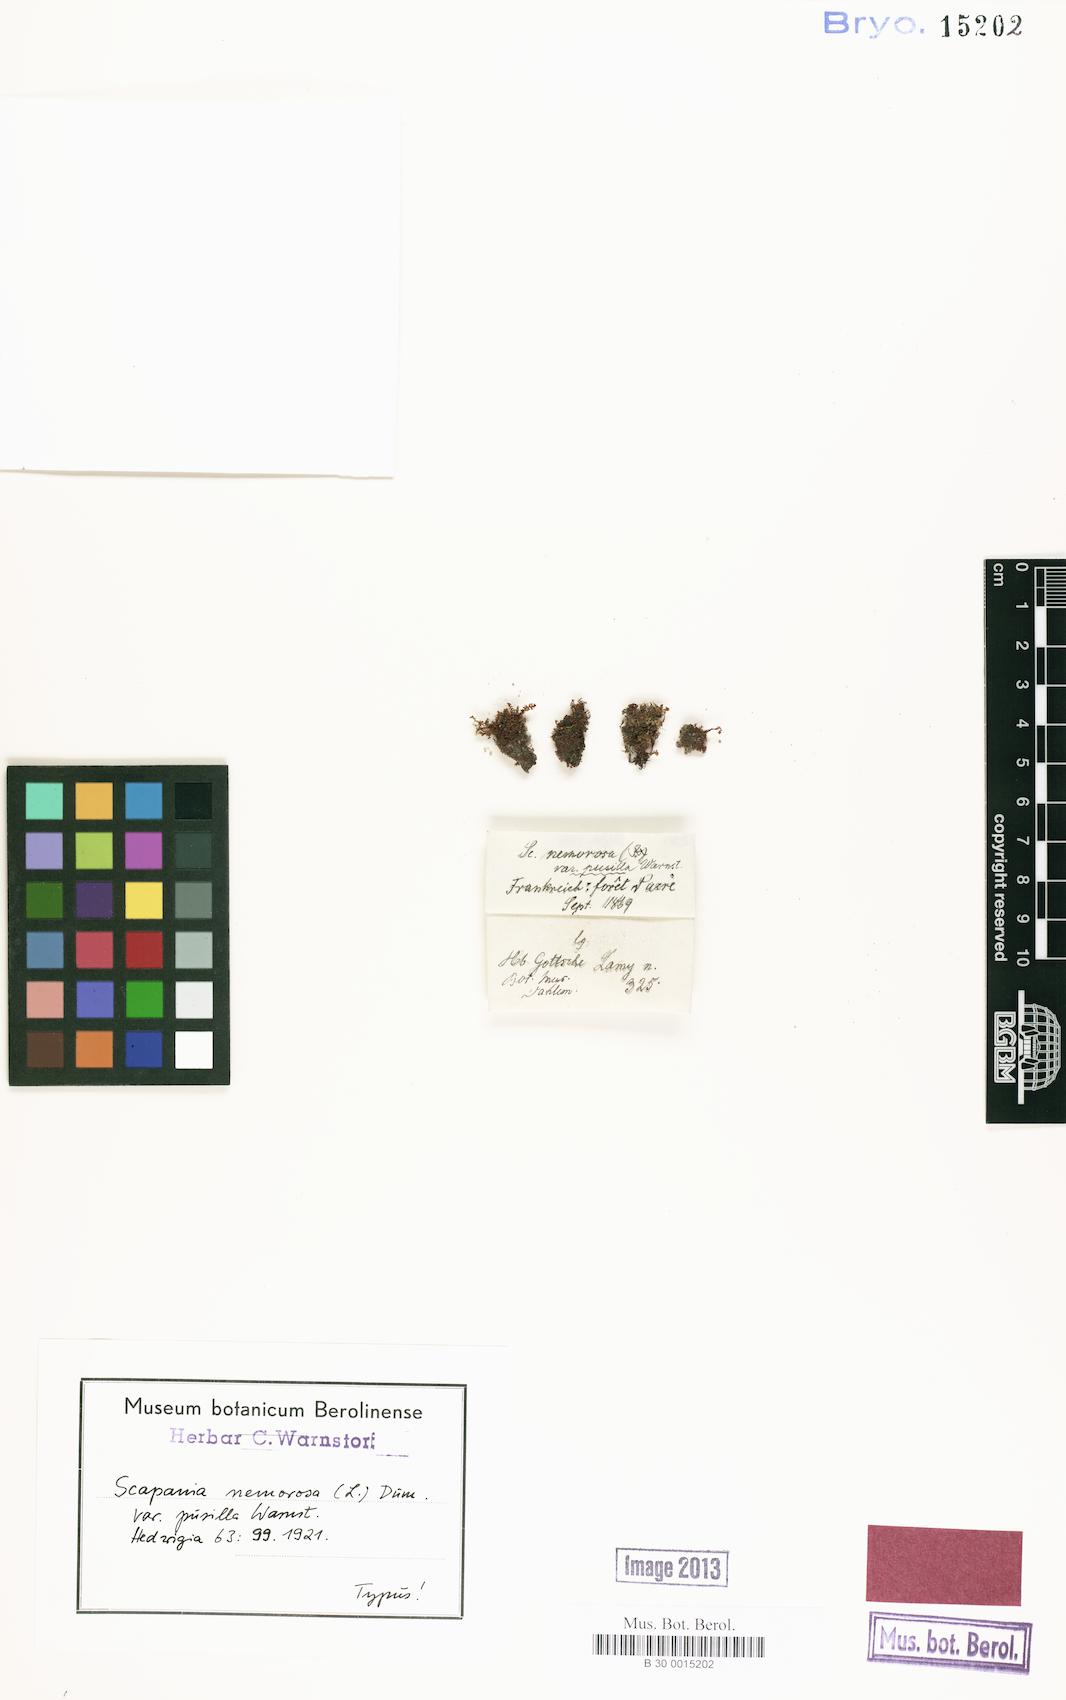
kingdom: Plantae
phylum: Marchantiophyta
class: Jungermanniopsida
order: Jungermanniales
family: Scapaniaceae
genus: Scapania
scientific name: Scapania nemorea
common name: Grove earwort
